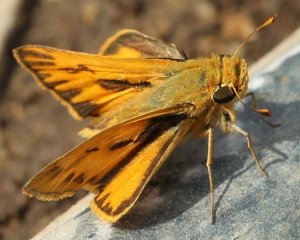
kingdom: Animalia
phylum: Arthropoda
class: Insecta
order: Lepidoptera
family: Hesperiidae
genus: Hylephila
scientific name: Hylephila phyleus
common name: Fiery Skipper
